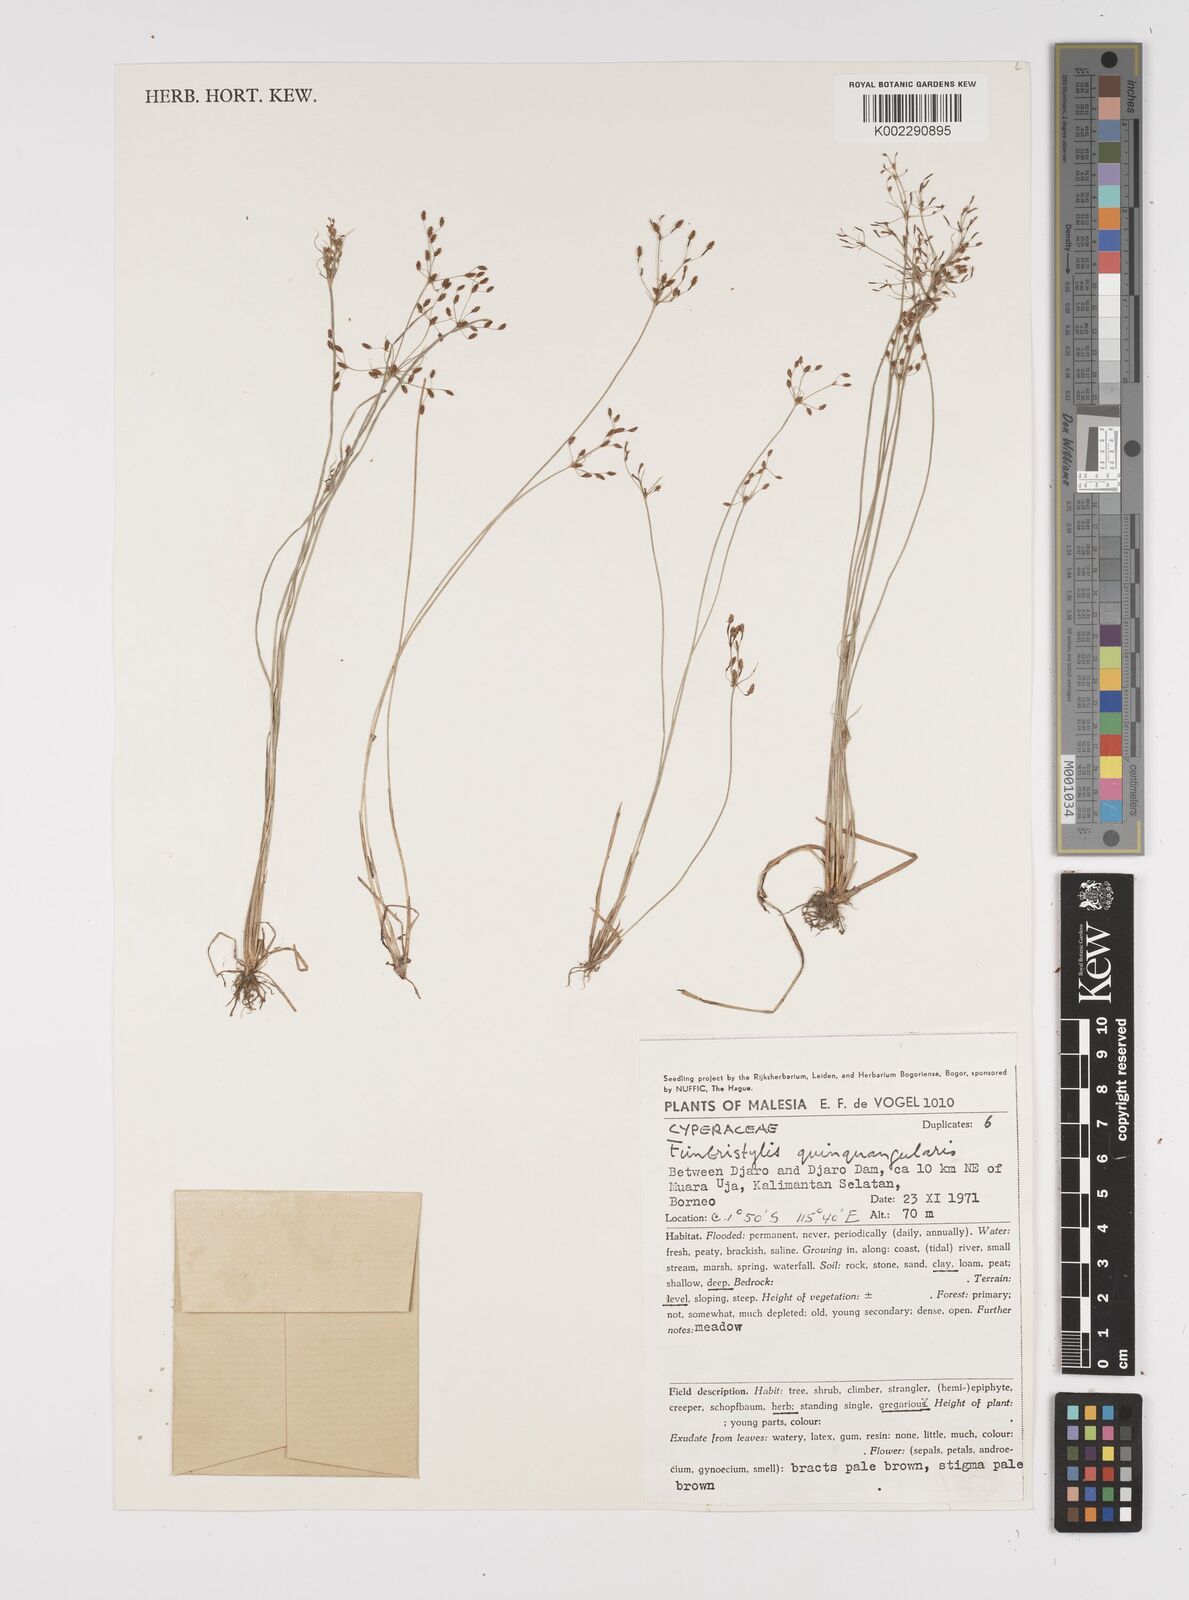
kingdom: Plantae
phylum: Tracheophyta
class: Liliopsida
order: Poales
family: Cyperaceae
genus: Fimbristylis
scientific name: Fimbristylis quinquangularis
